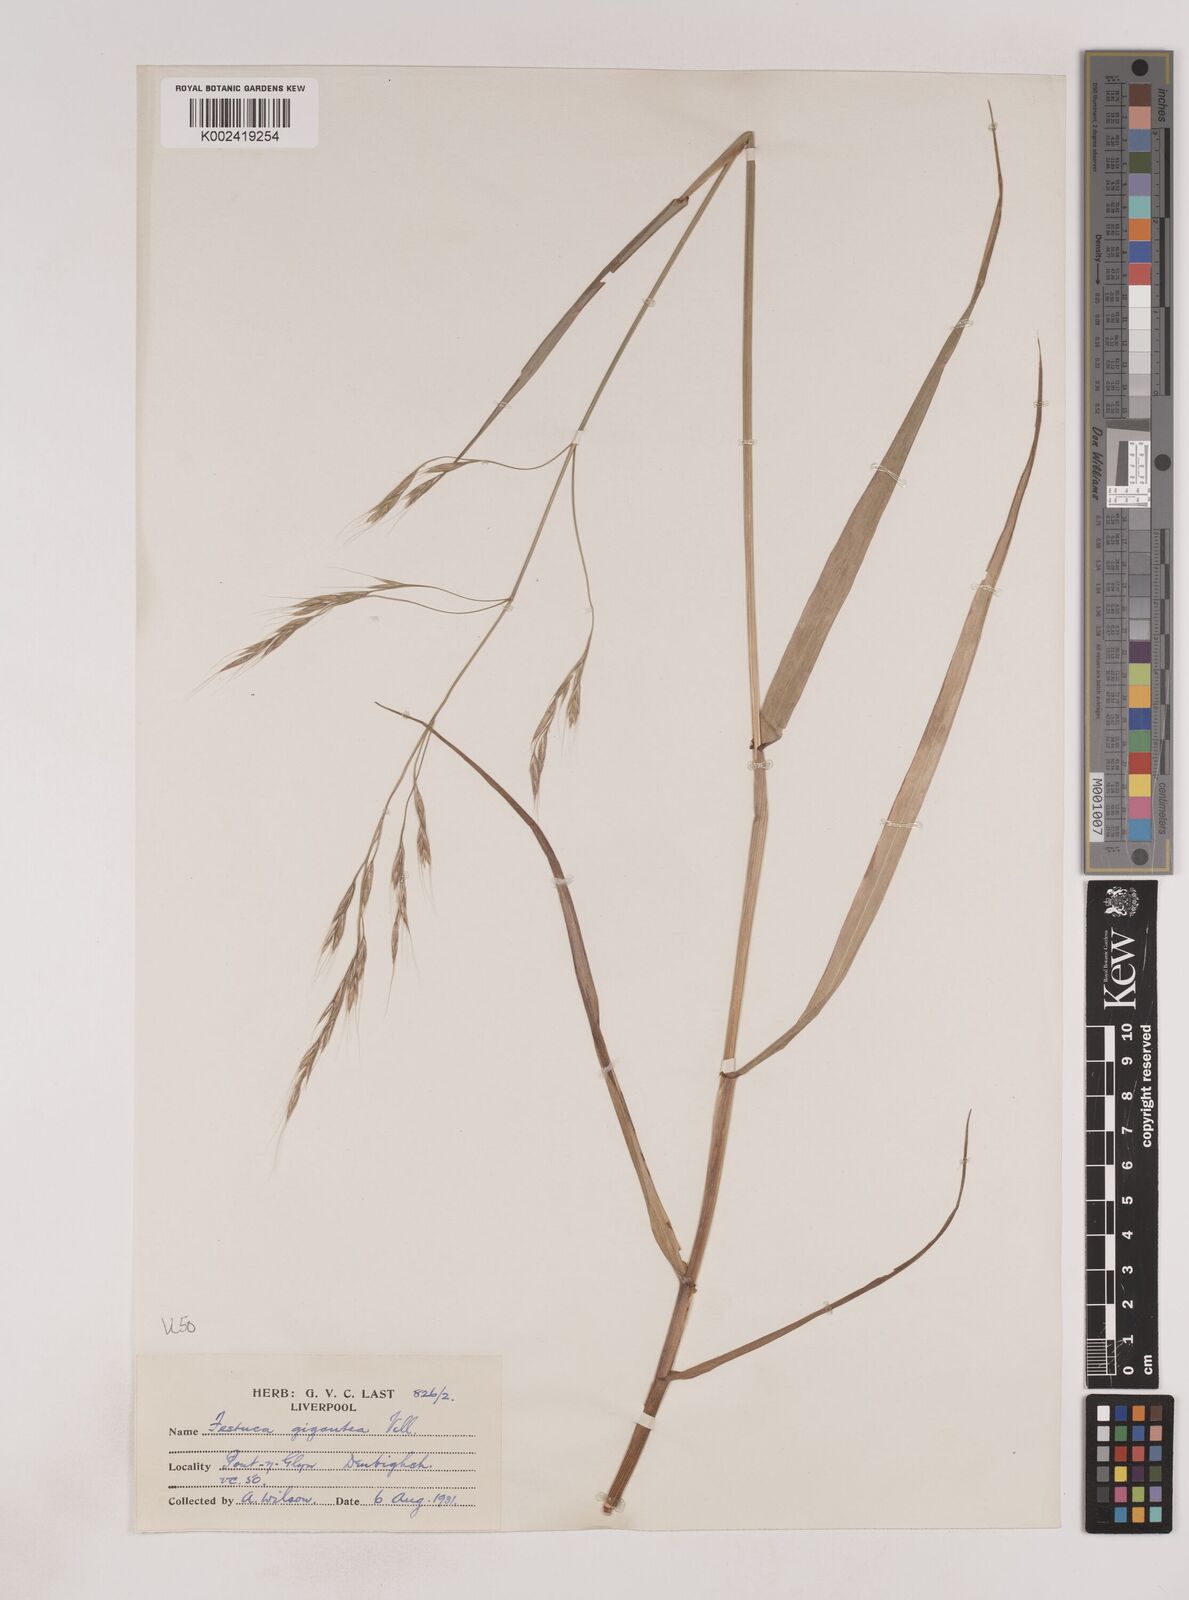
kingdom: Plantae
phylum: Tracheophyta
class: Liliopsida
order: Poales
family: Poaceae
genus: Lolium
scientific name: Lolium giganteum
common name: Giant fescue
